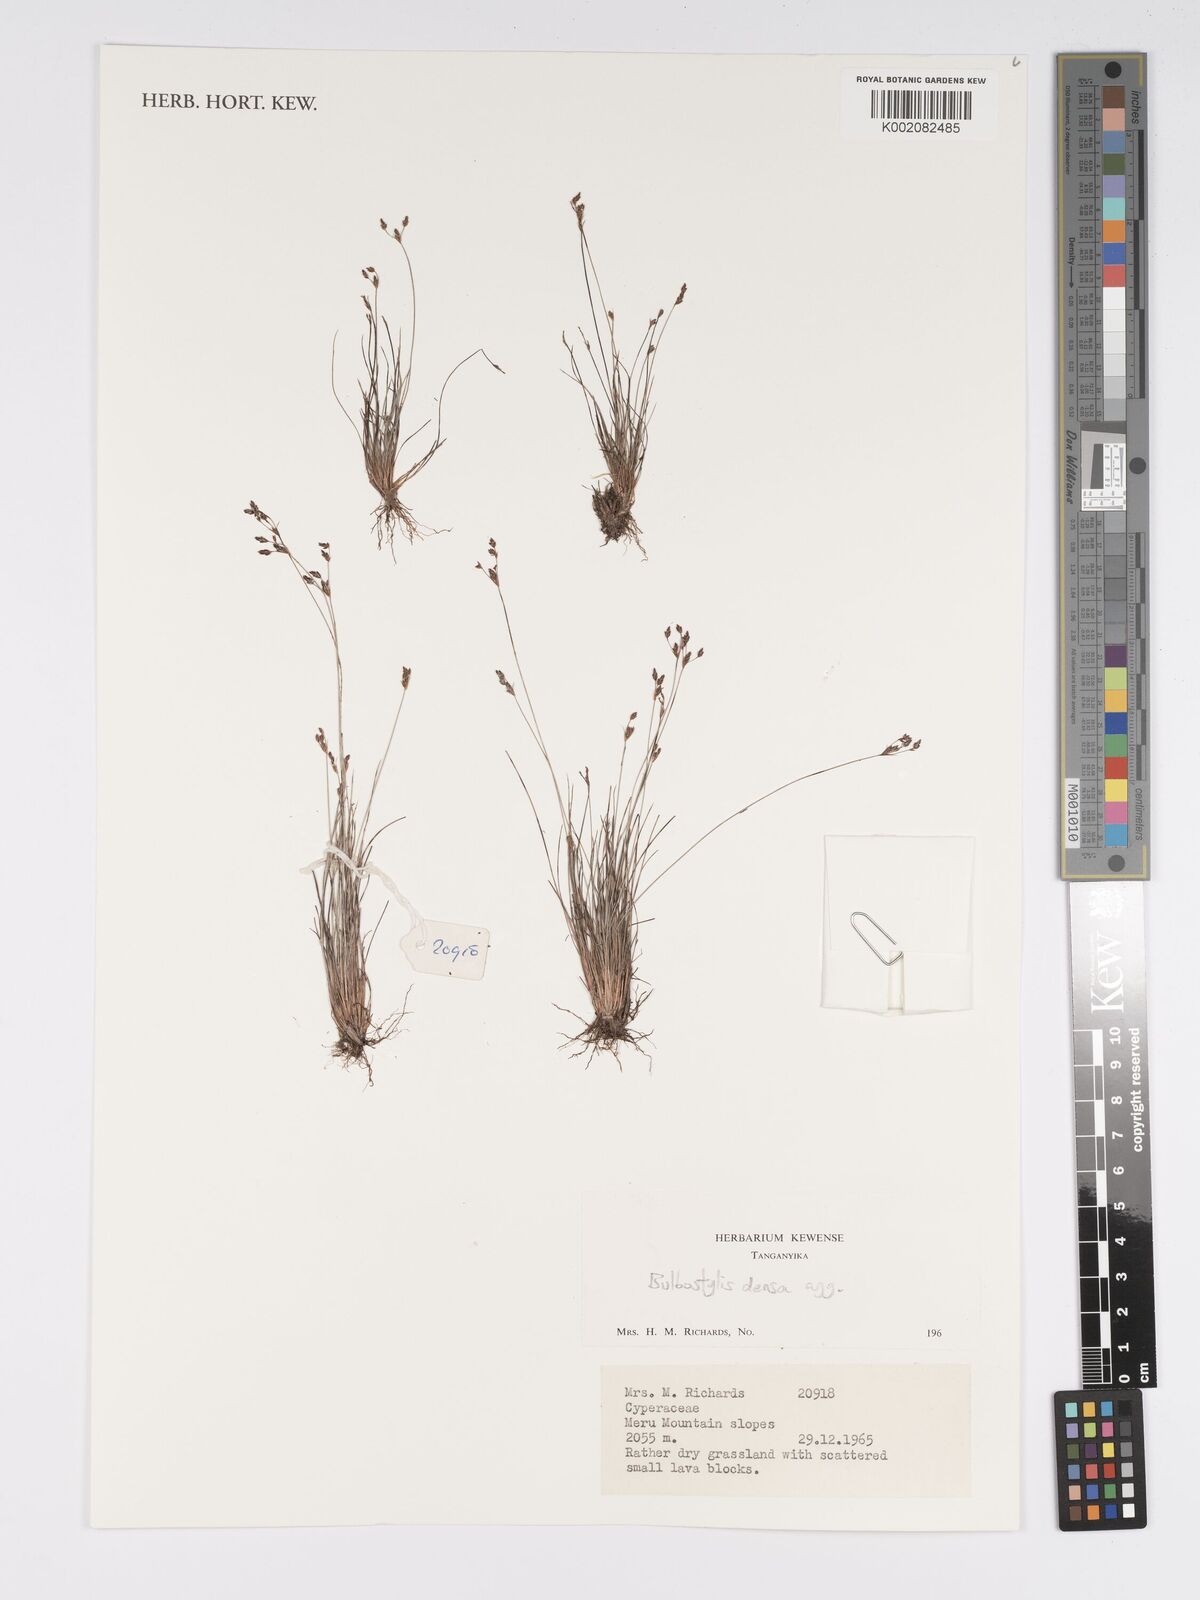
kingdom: Plantae
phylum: Tracheophyta
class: Liliopsida
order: Poales
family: Cyperaceae
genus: Bulbostylis
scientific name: Bulbostylis densa
